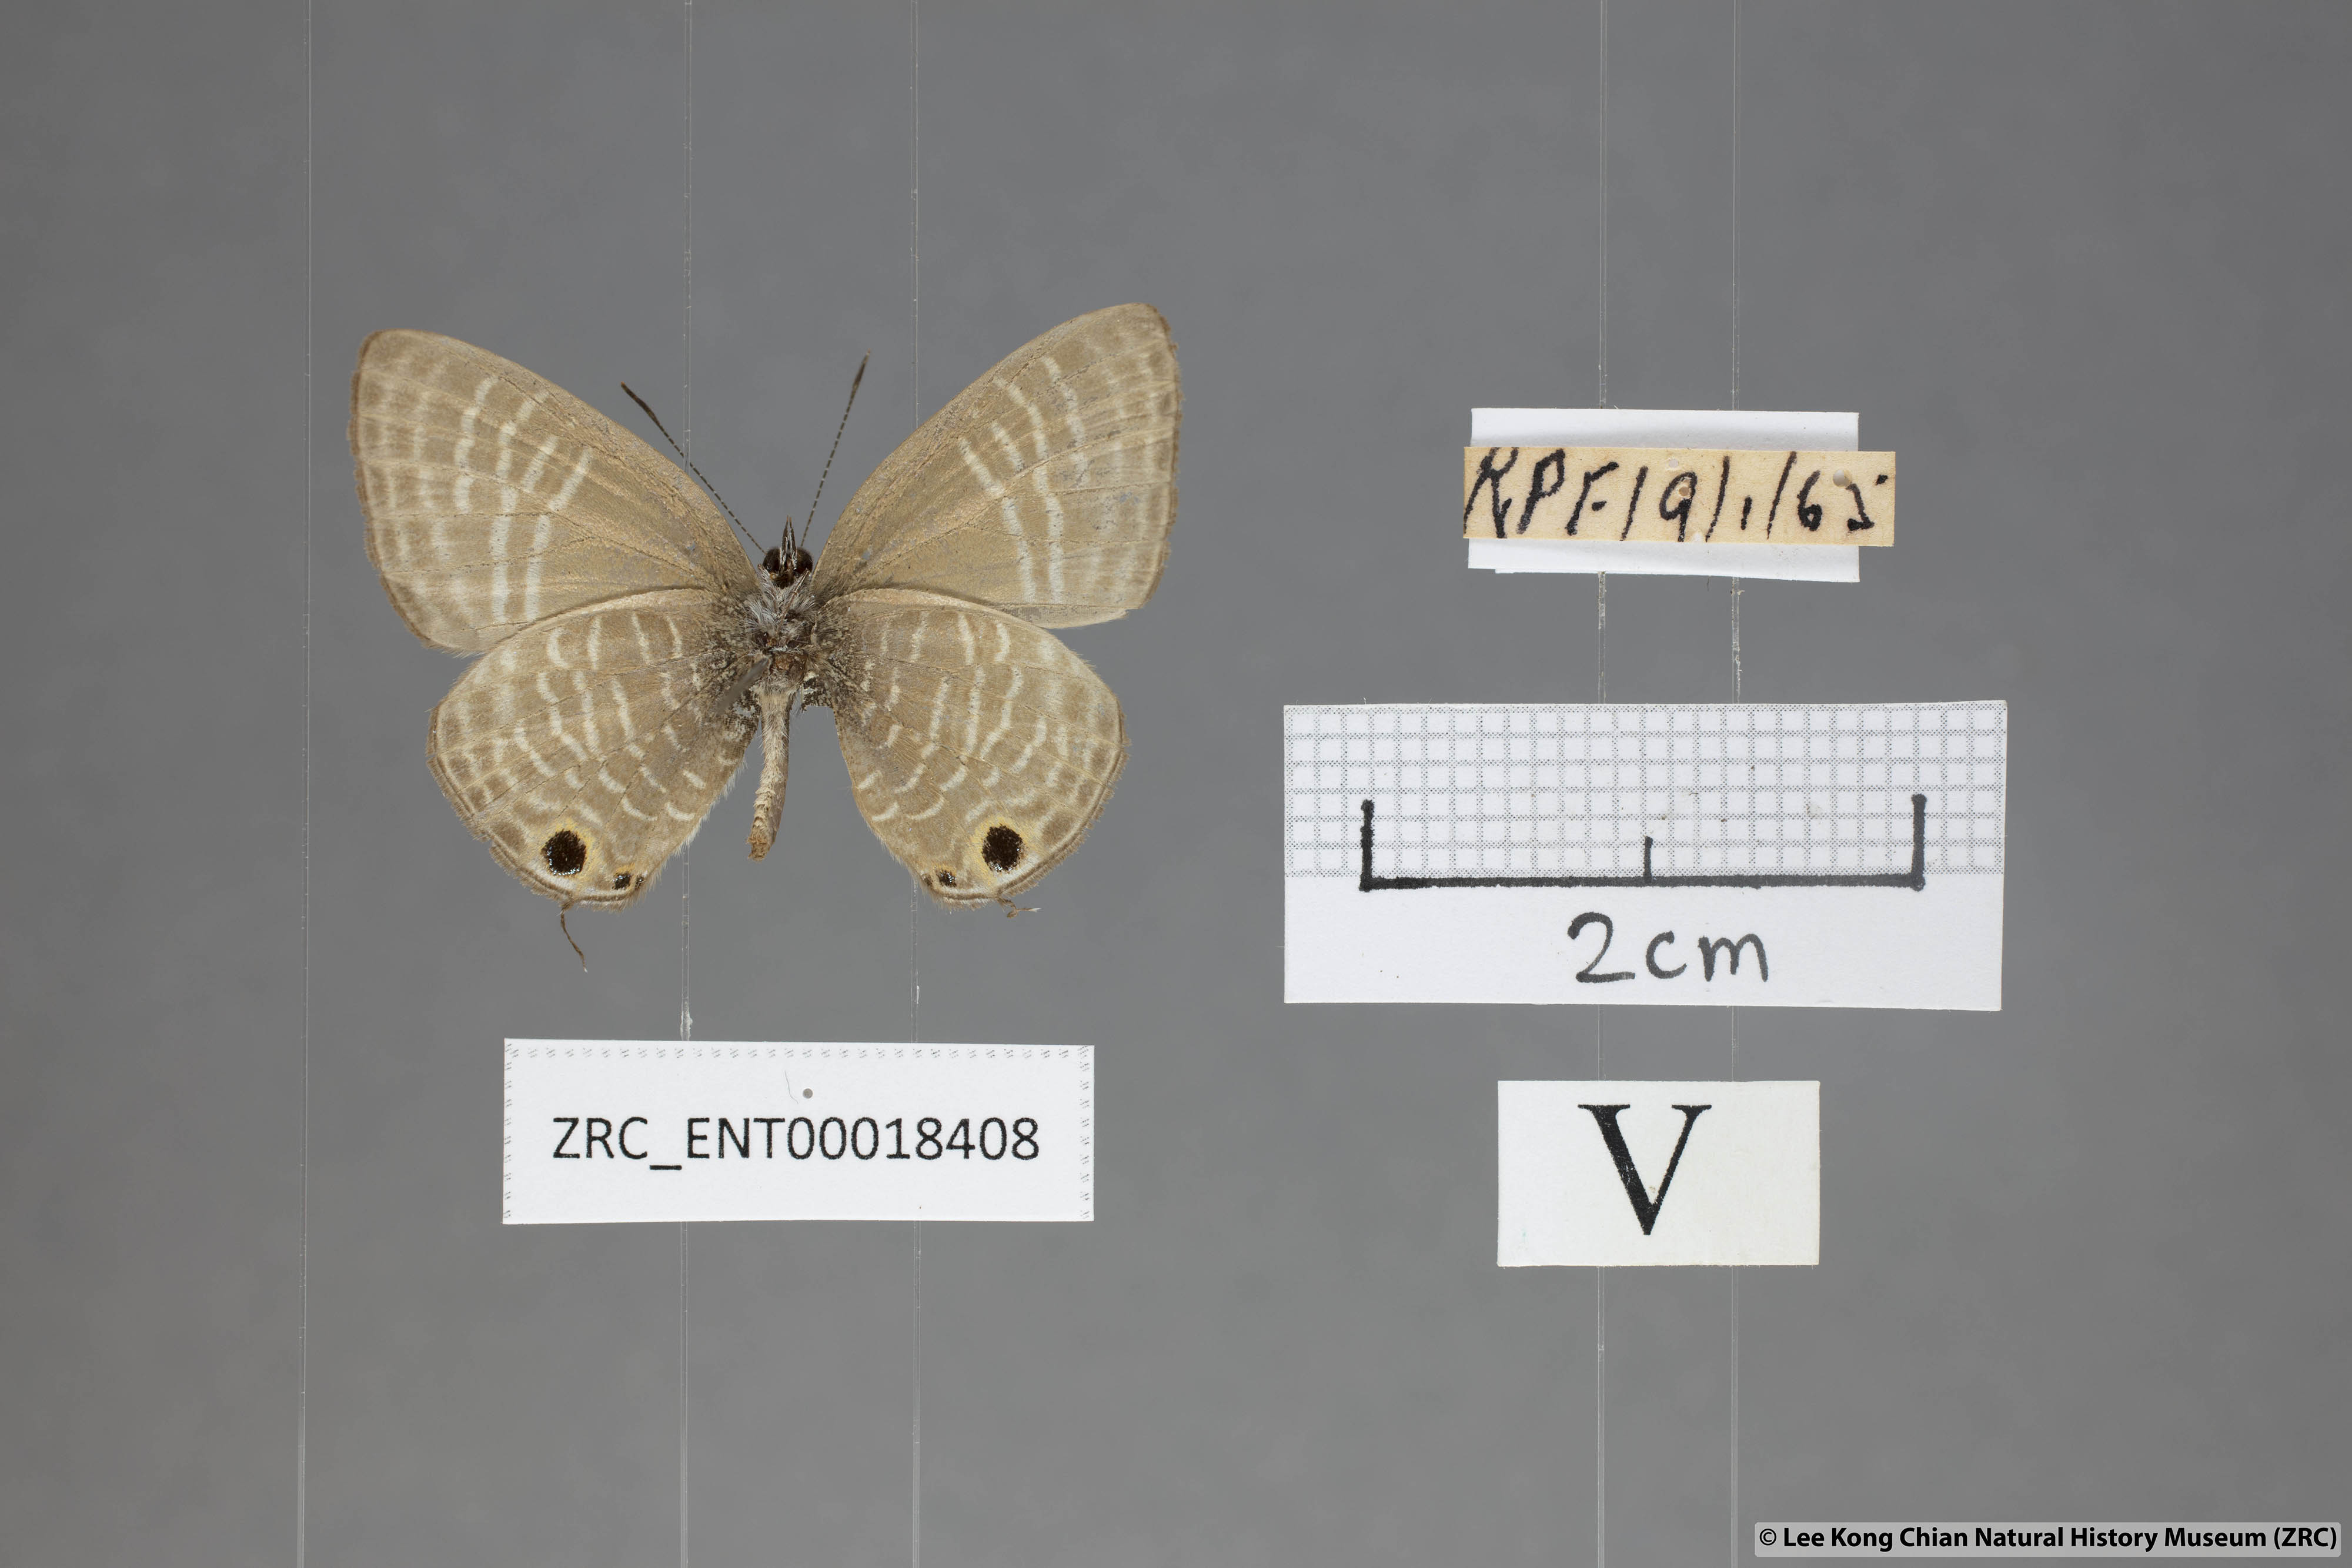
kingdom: Animalia
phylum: Arthropoda
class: Insecta
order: Lepidoptera
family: Lycaenidae
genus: Nacaduba
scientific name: Nacaduba pactolus
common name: Large fourline blue
